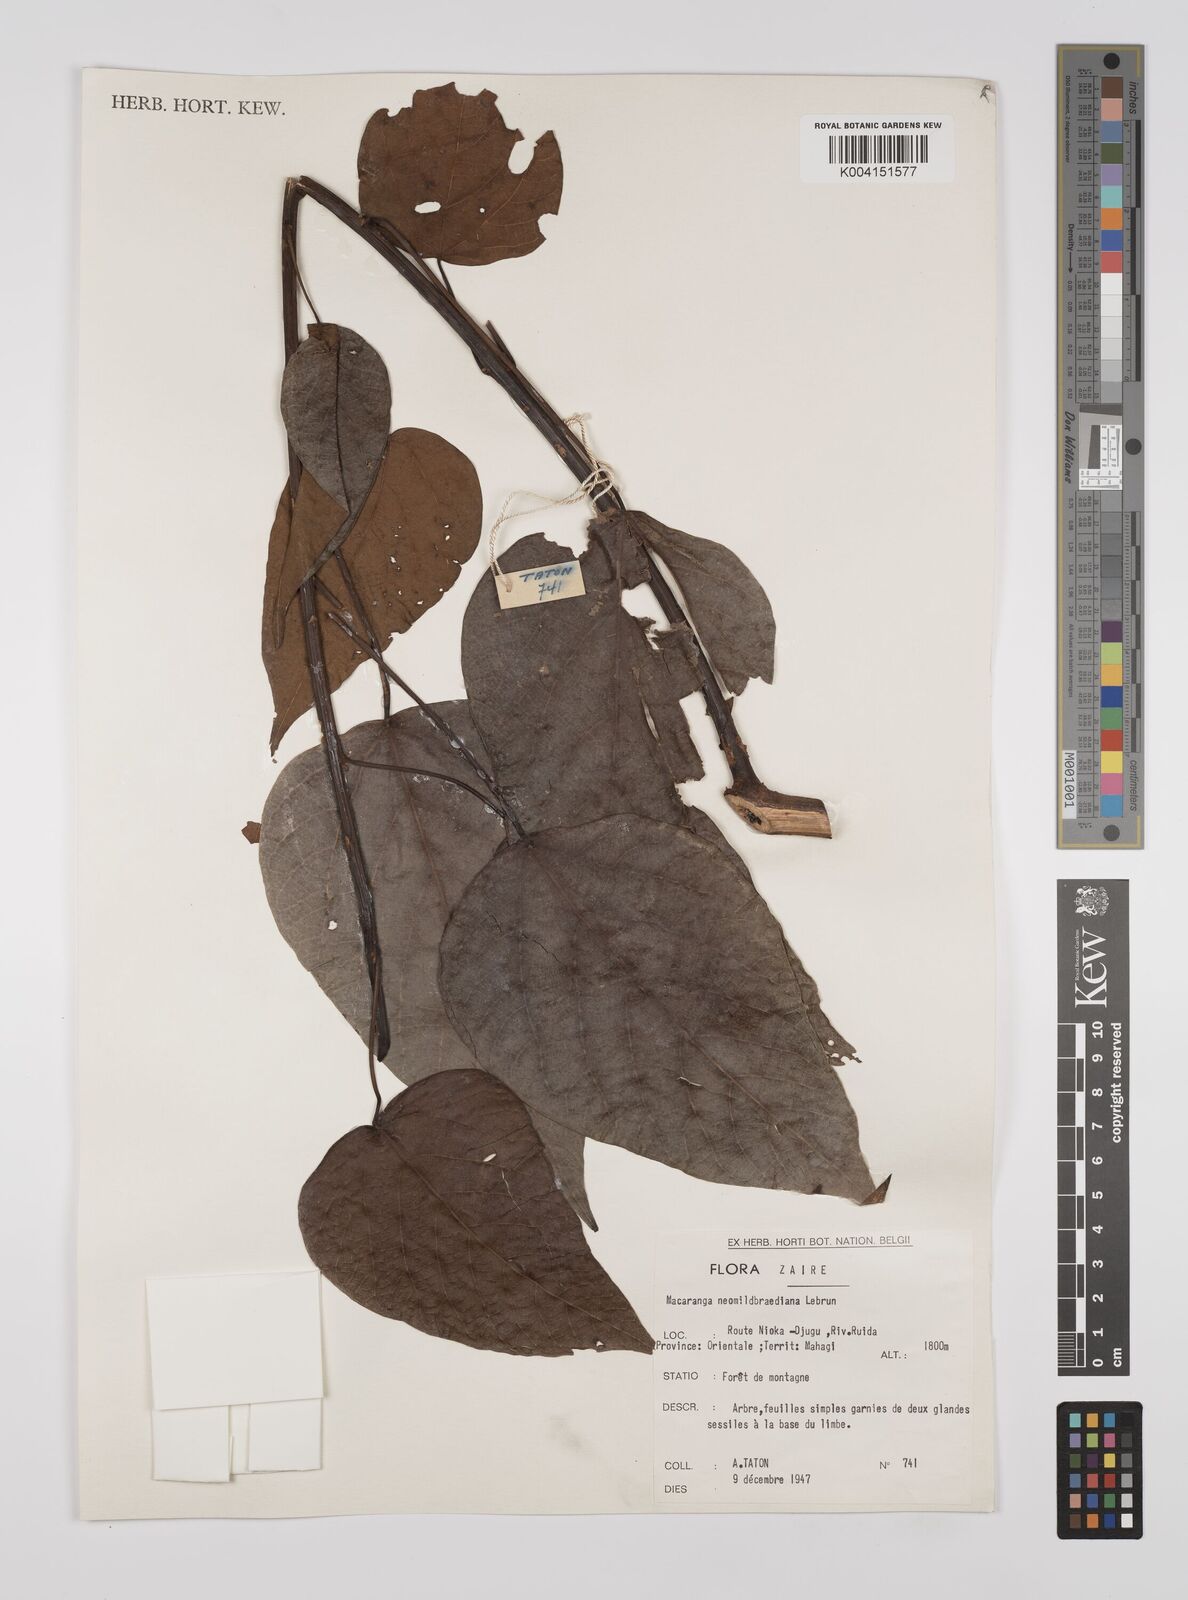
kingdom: Plantae
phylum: Tracheophyta
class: Magnoliopsida
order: Malpighiales
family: Euphorbiaceae
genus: Macaranga
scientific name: Macaranga kilimandscharica
